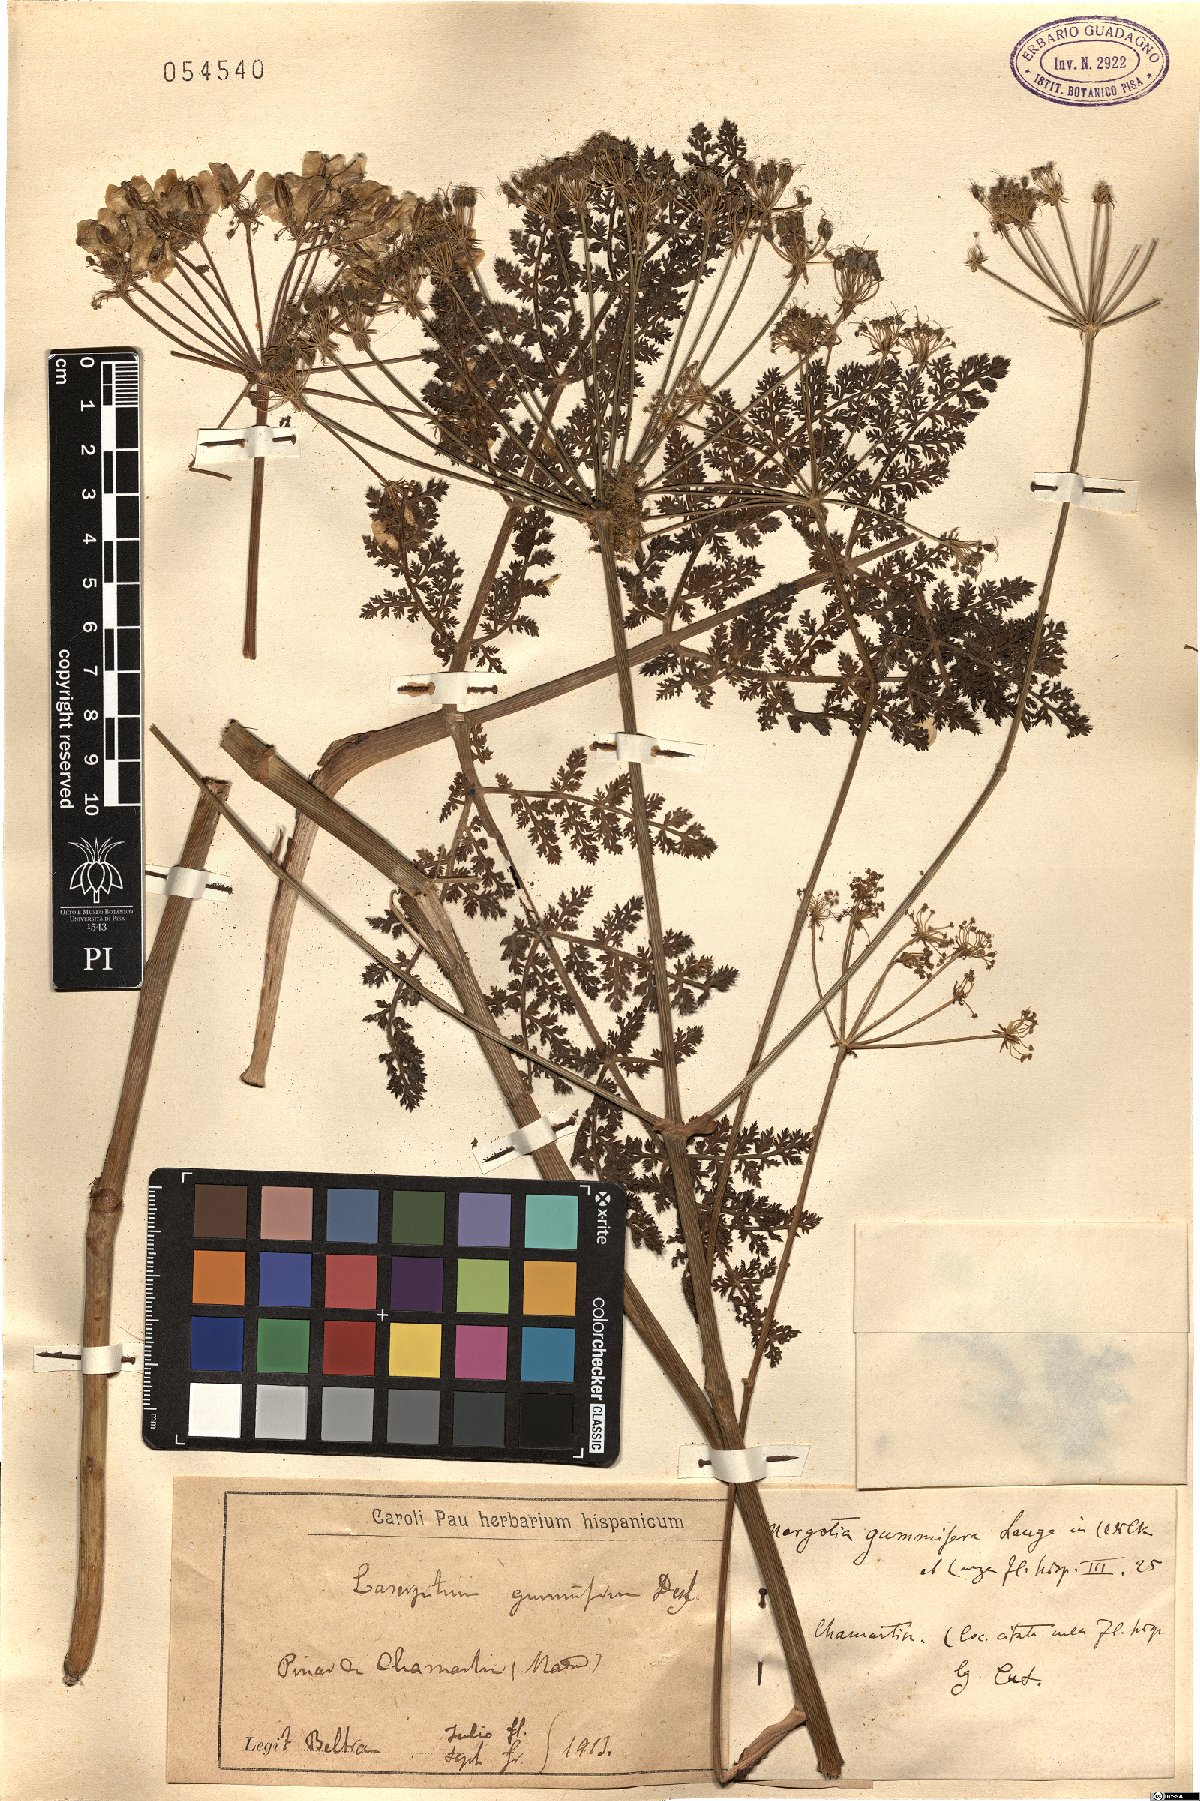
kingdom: Plantae
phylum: Tracheophyta
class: Magnoliopsida
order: Apiales
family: Apiaceae
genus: Thapsia
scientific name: Thapsia gummifera
